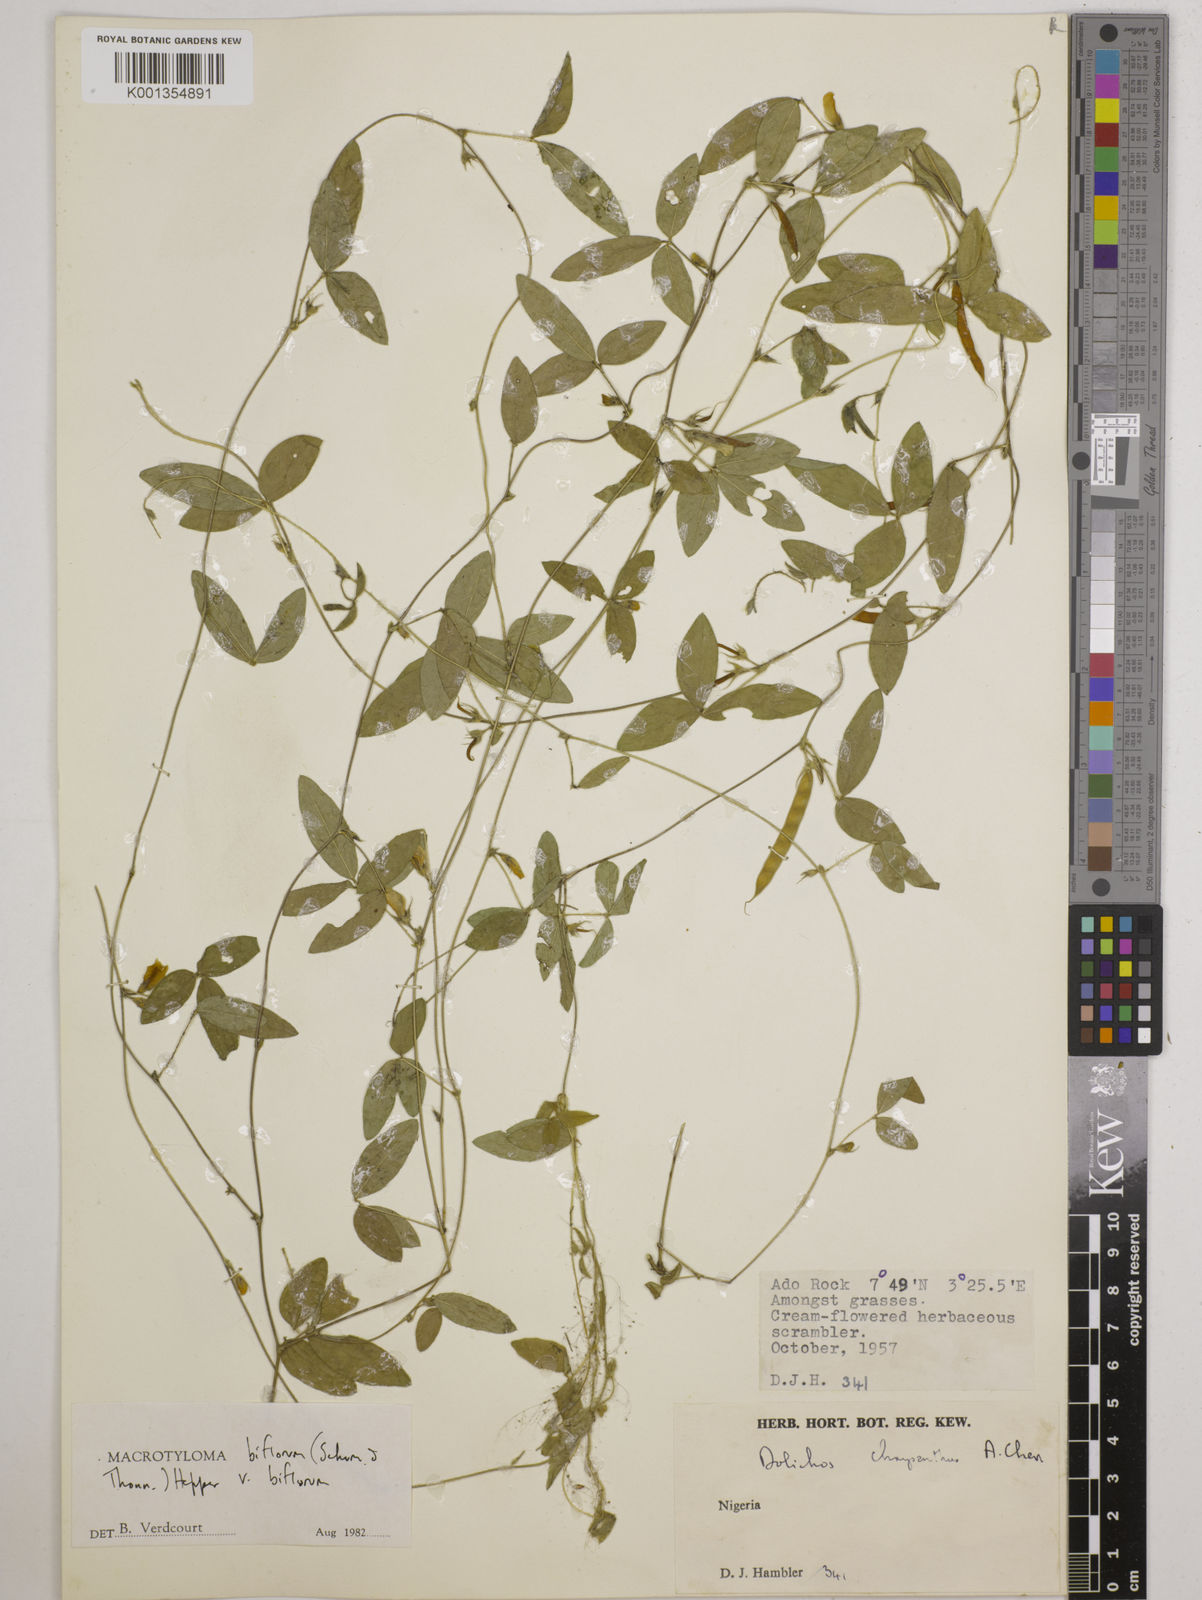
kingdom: Plantae
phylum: Tracheophyta
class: Magnoliopsida
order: Fabales
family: Fabaceae
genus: Macrotyloma
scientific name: Macrotyloma biflorum
